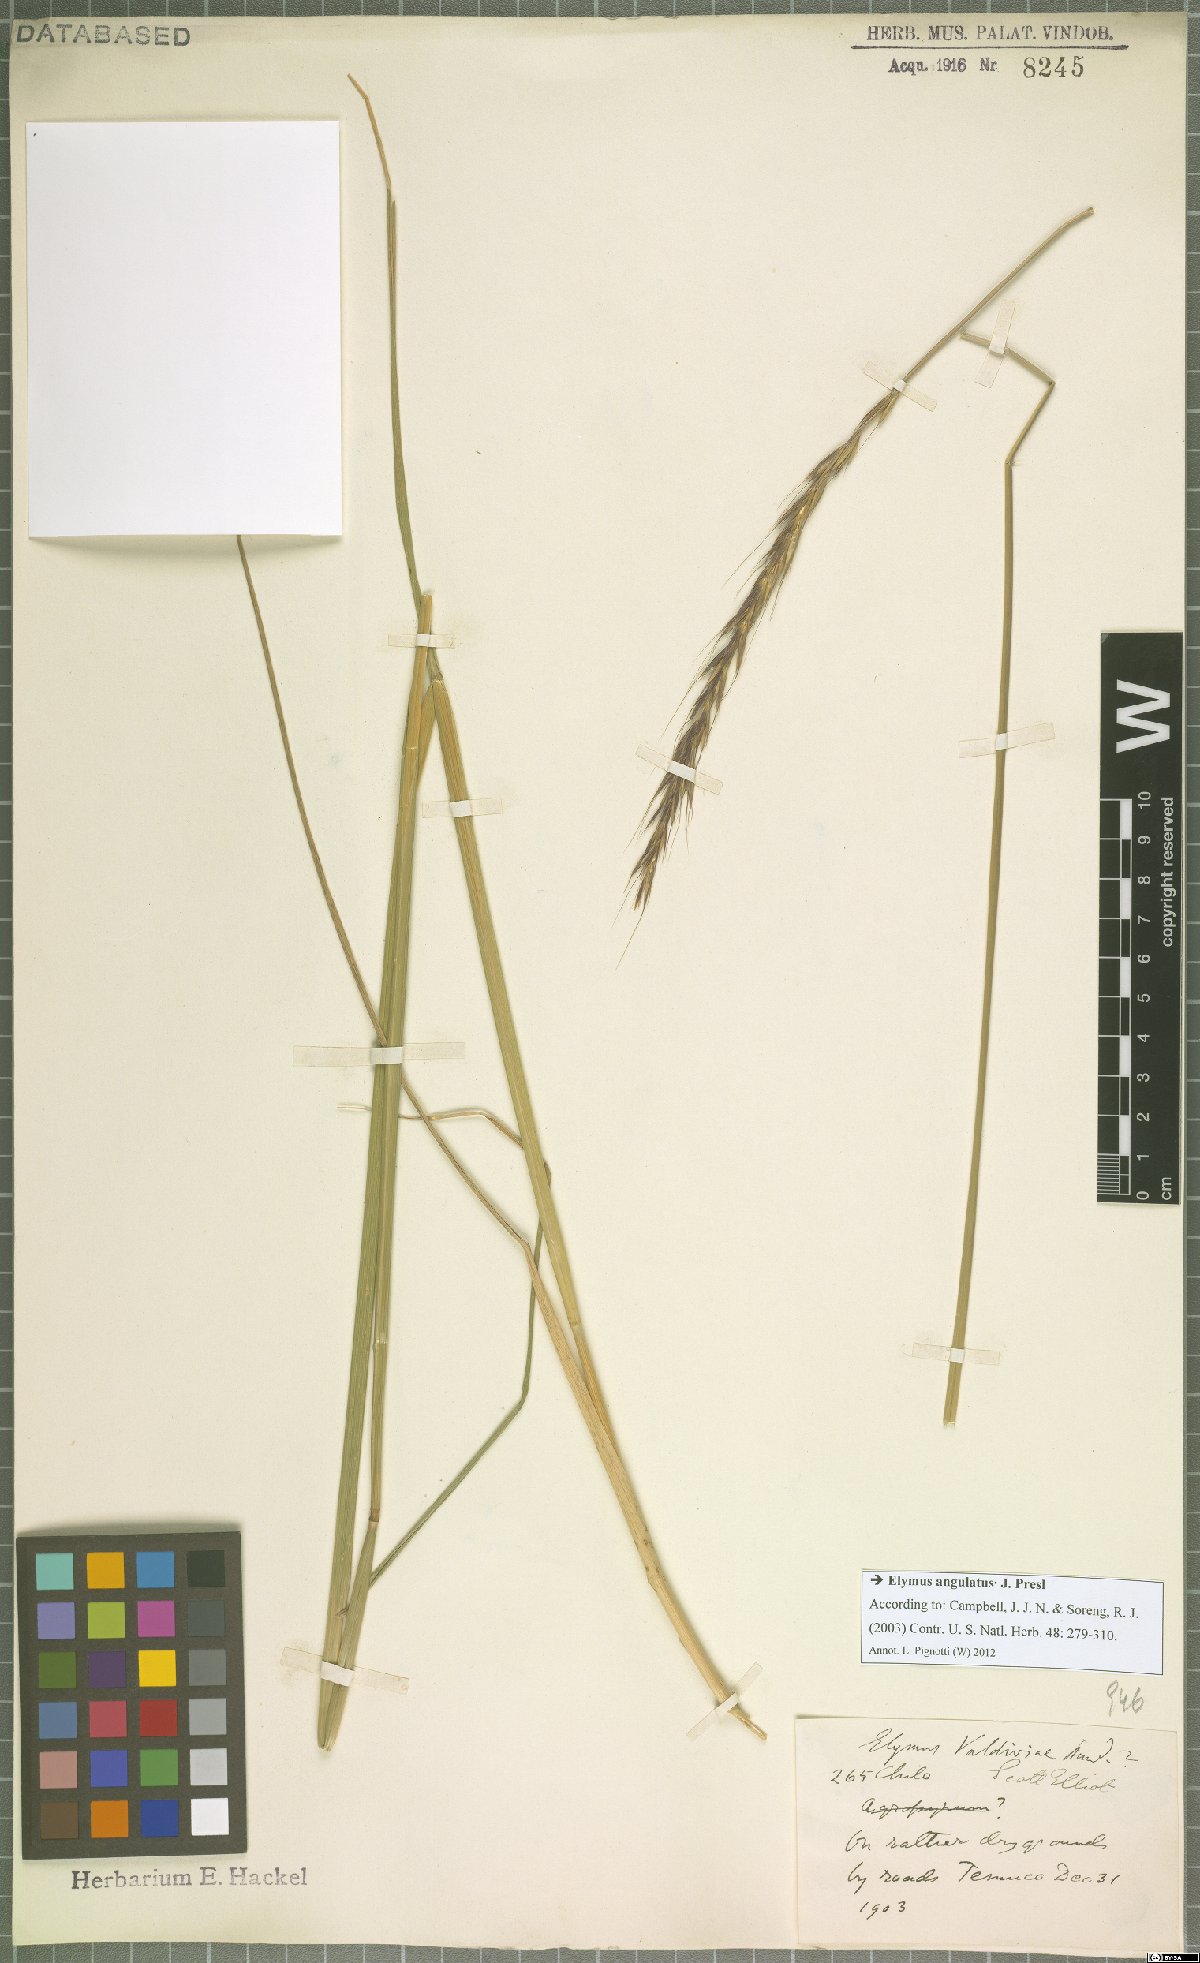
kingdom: Plantae
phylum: Tracheophyta
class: Liliopsida
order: Poales
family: Poaceae
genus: Elymus
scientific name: Elymus angulatus
